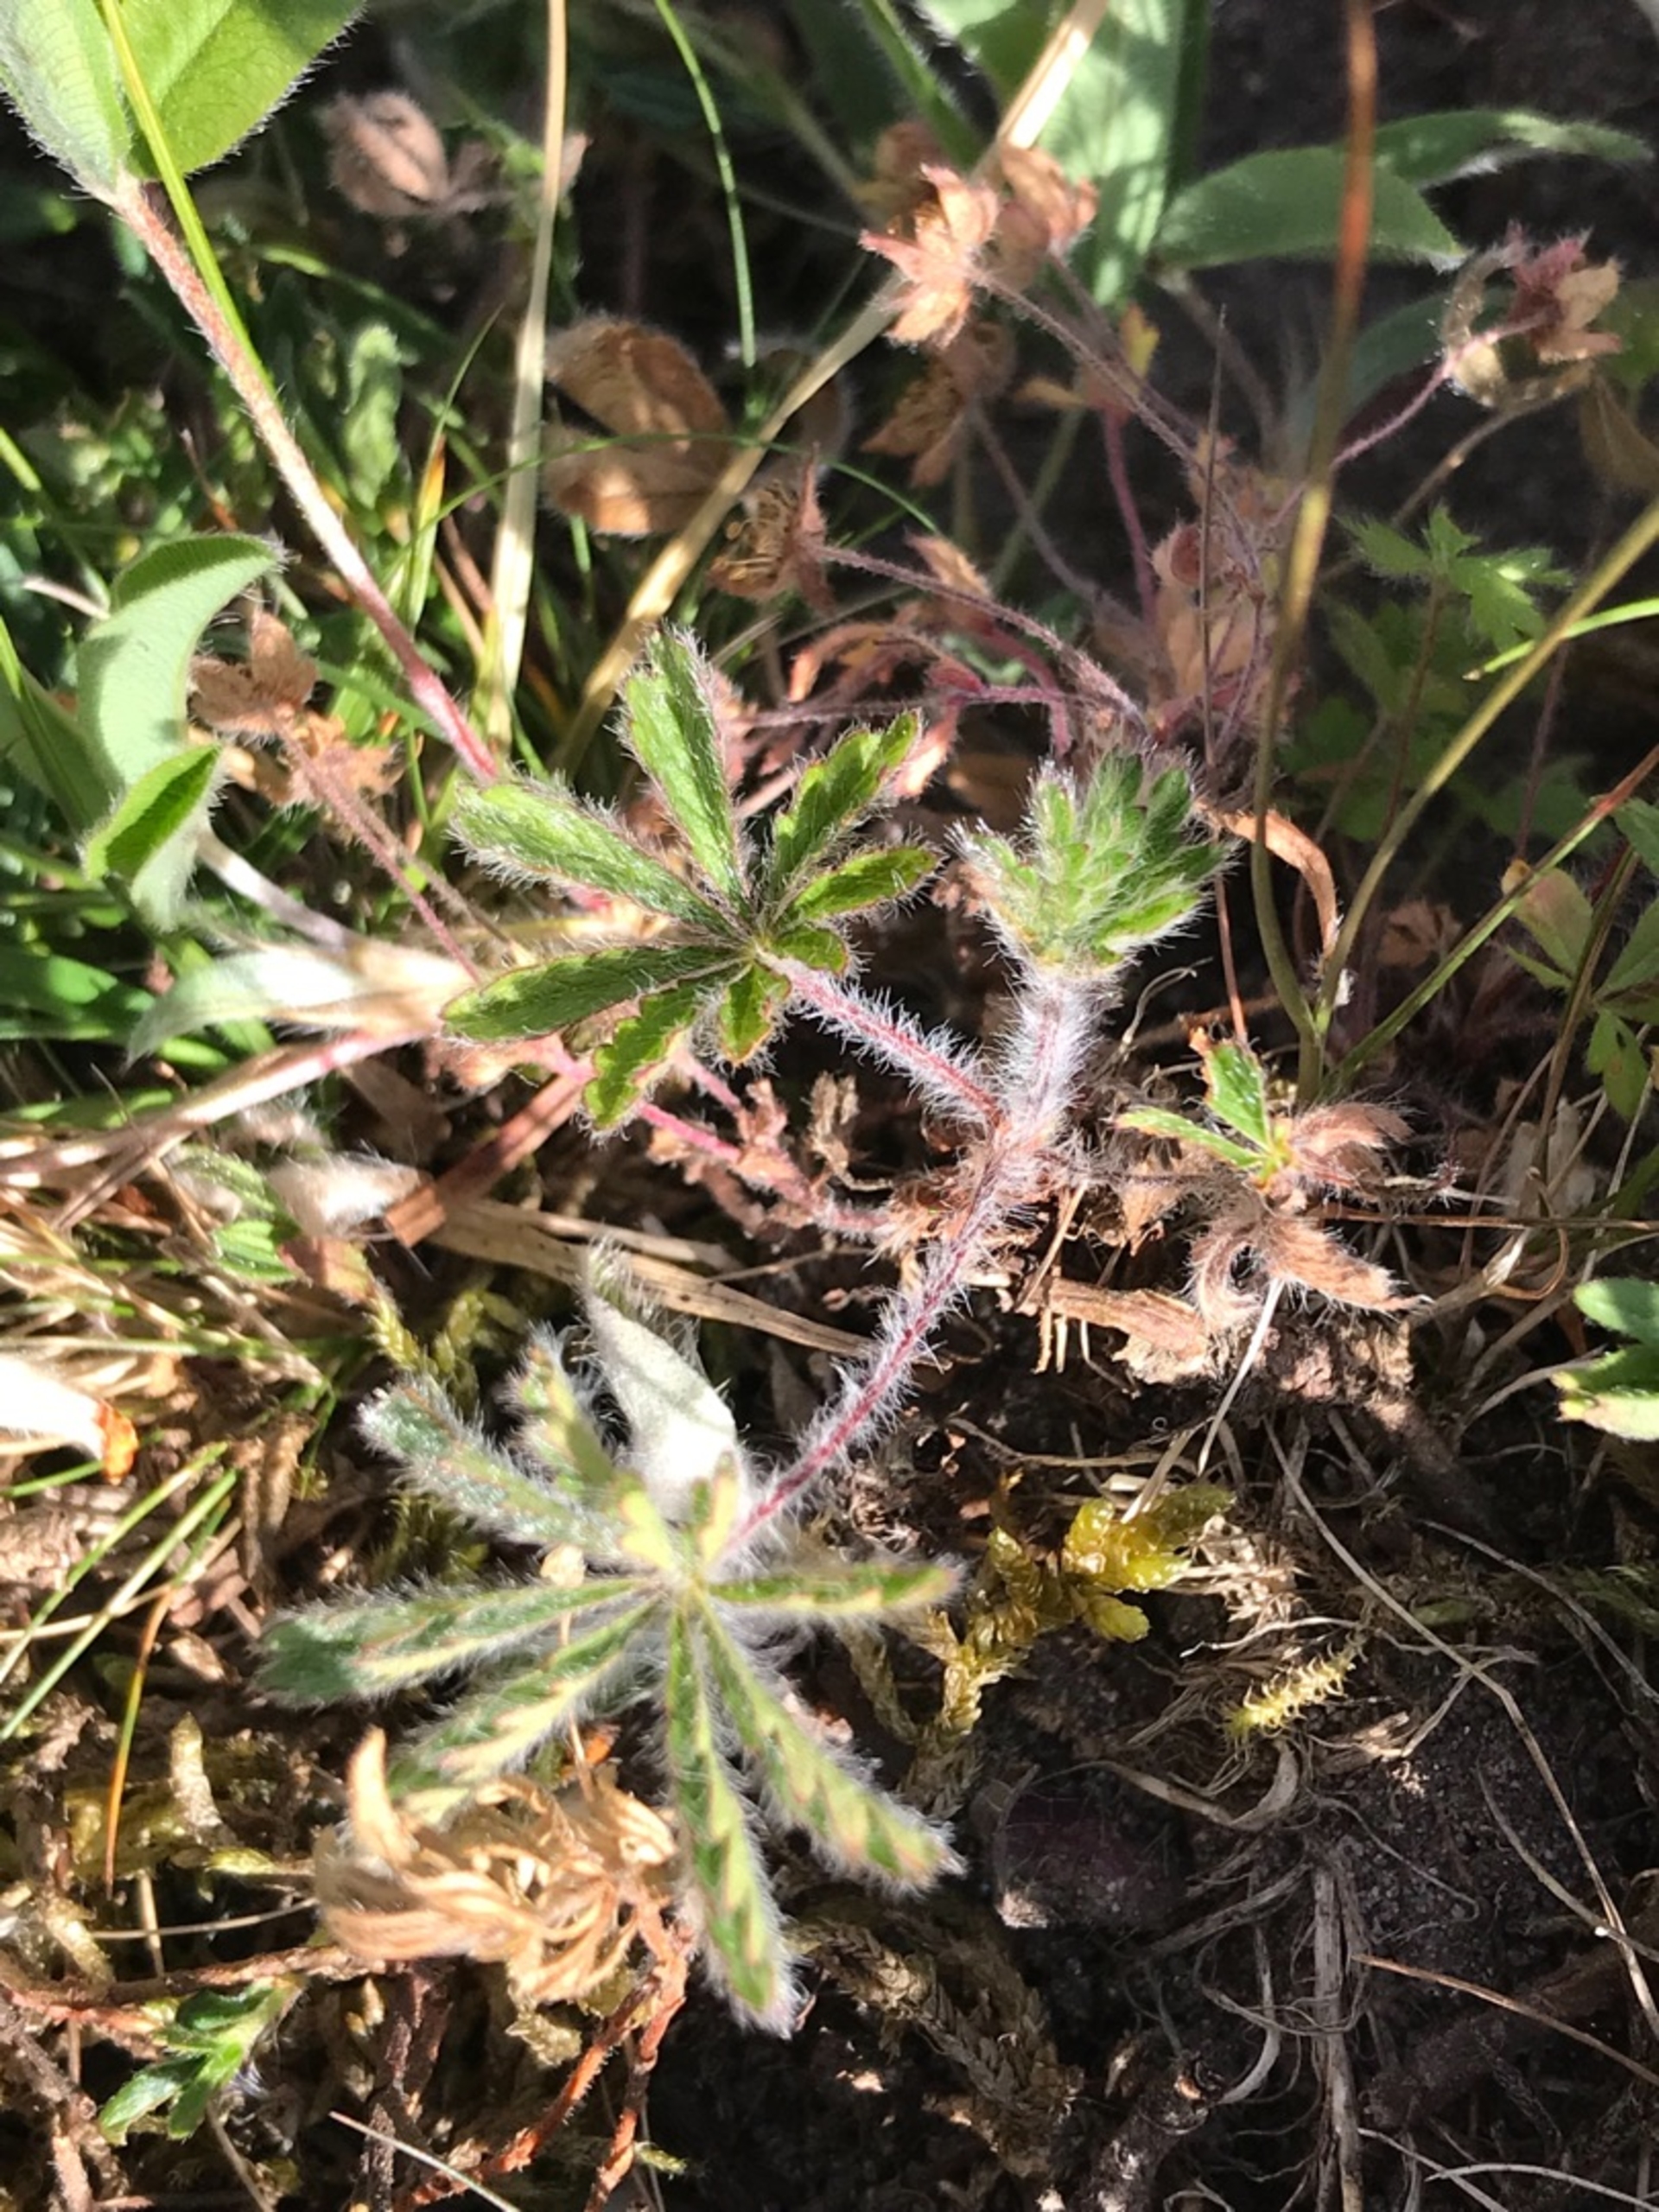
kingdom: Plantae
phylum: Tracheophyta
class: Magnoliopsida
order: Rosales
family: Rosaceae
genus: Potentilla
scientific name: Potentilla heptaphylla
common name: Mat potentil
